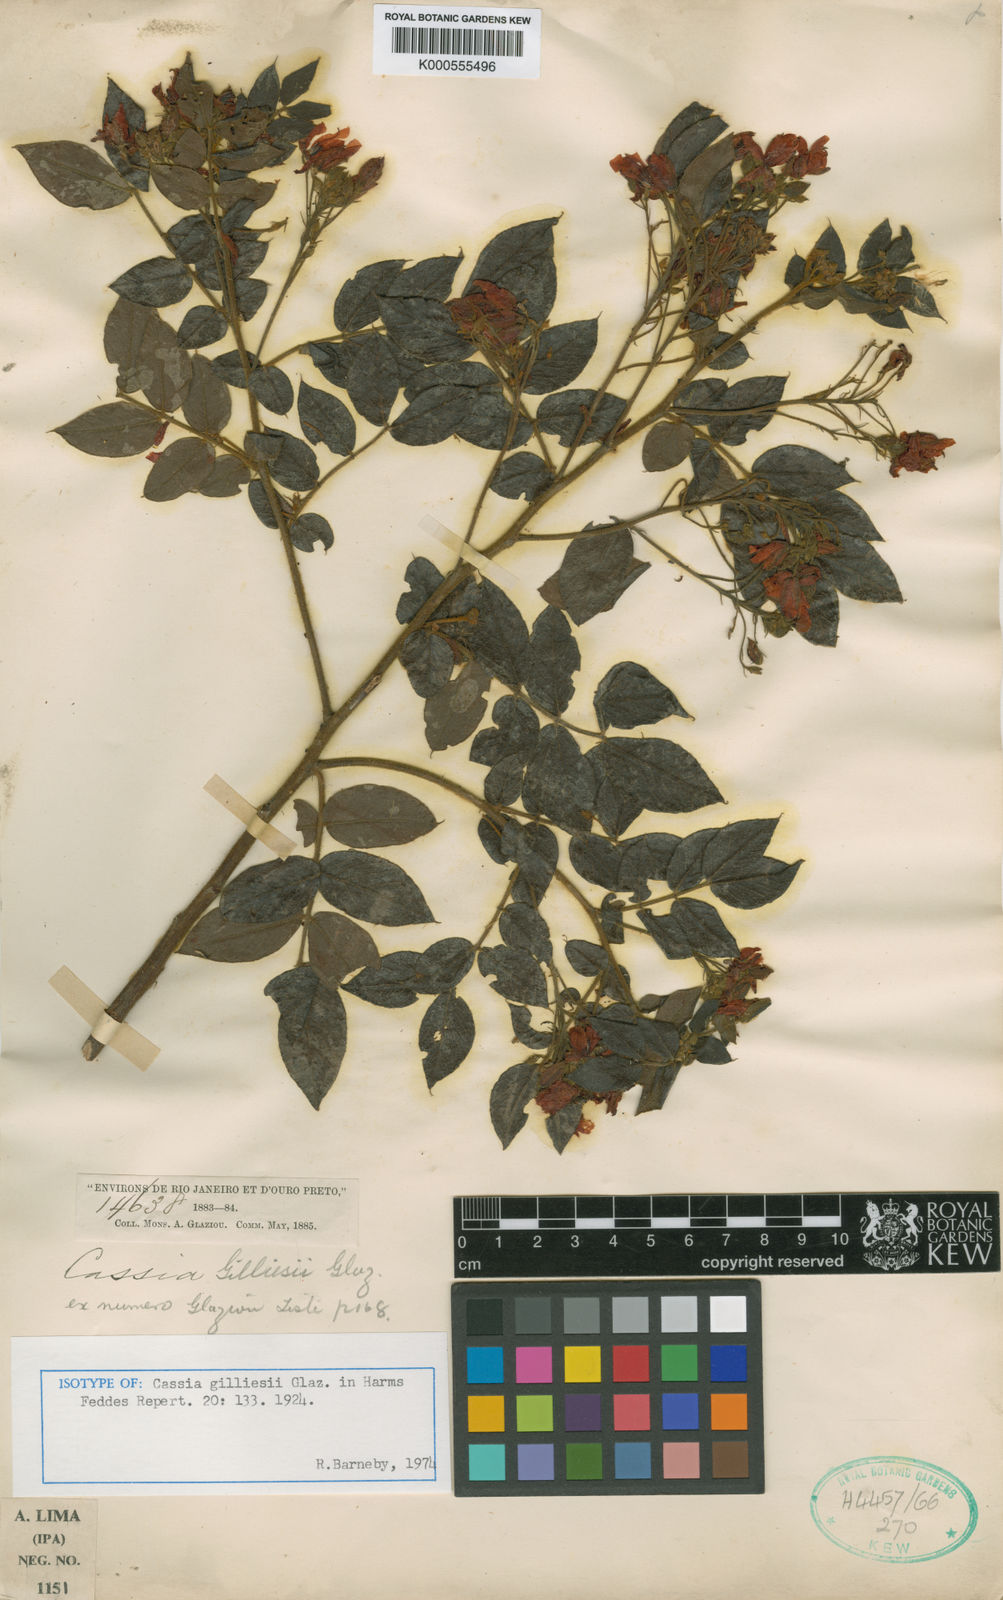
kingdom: Plantae
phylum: Tracheophyta
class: Magnoliopsida
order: Fabales
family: Fabaceae
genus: Chamaecrista
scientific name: Chamaecrista gilliesii
